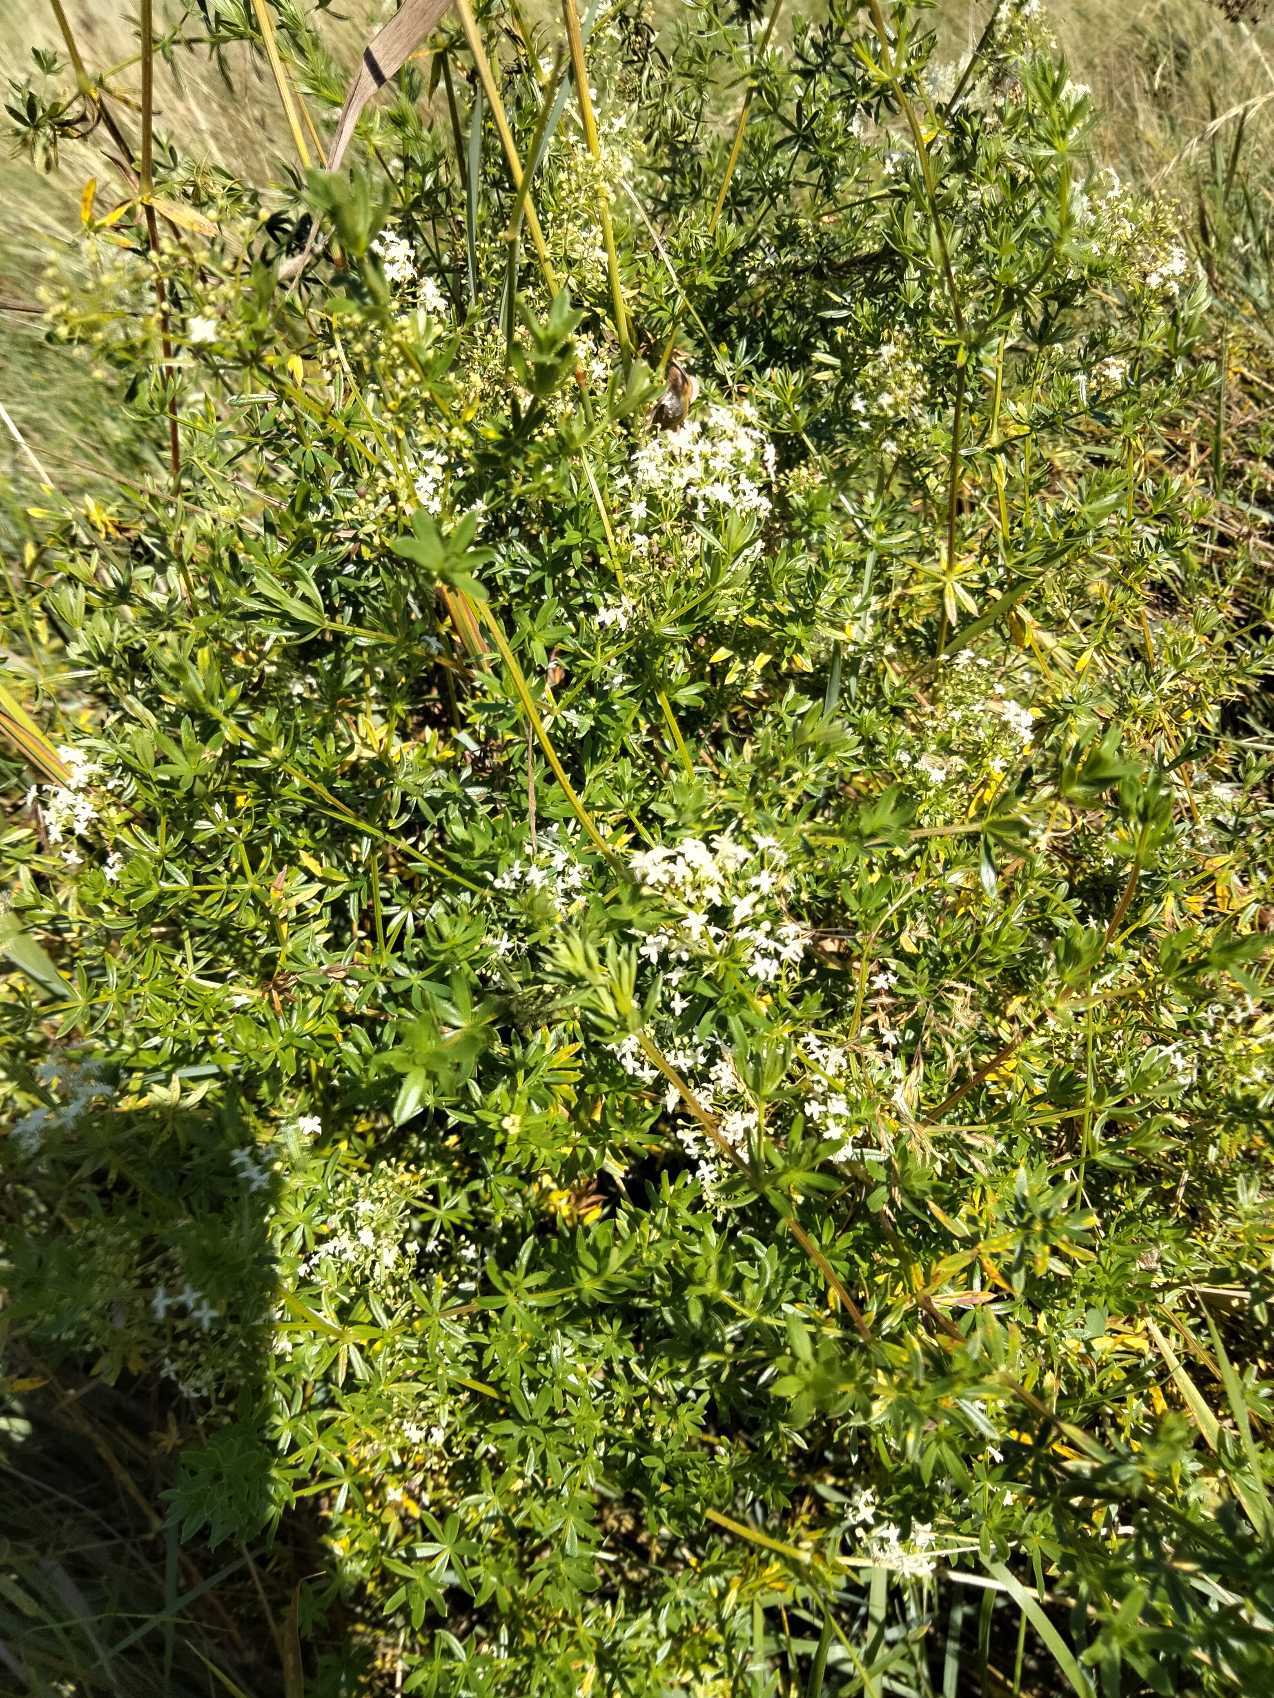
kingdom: Plantae
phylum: Tracheophyta
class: Magnoliopsida
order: Gentianales
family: Rubiaceae
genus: Galium
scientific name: Galium mollugo
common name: Hvid snerre
